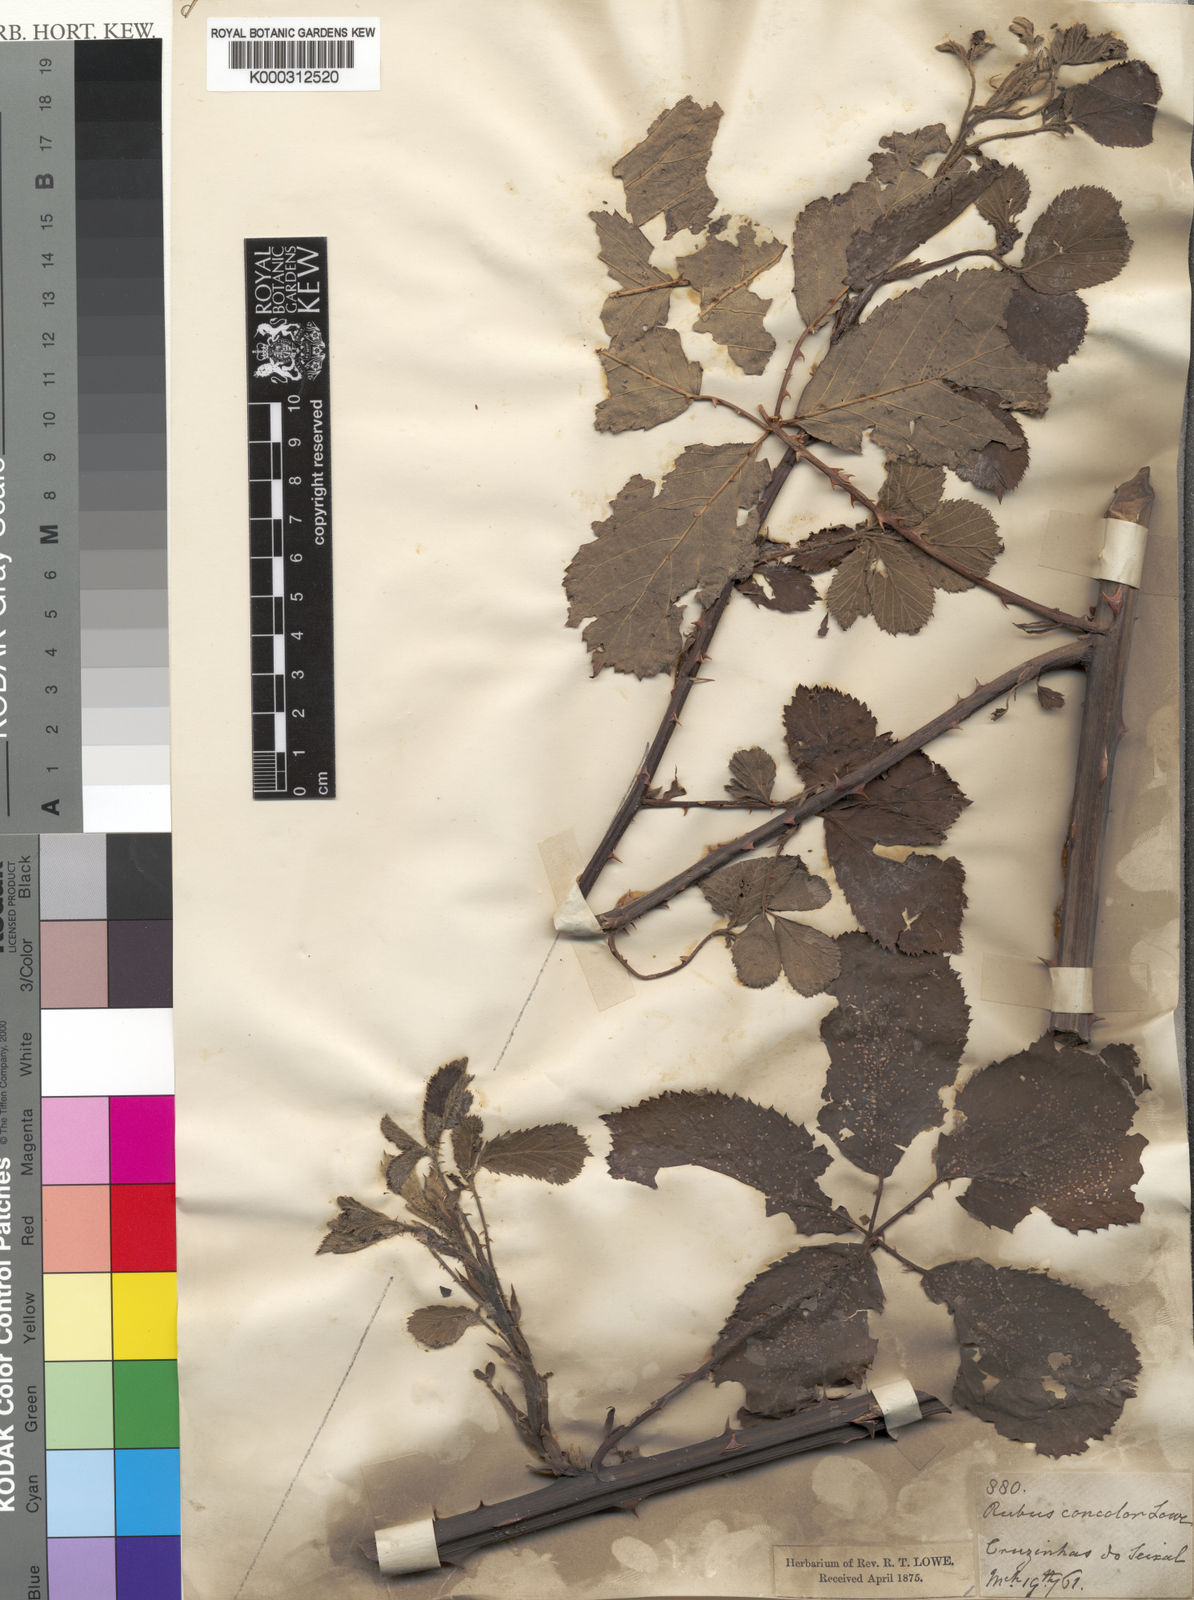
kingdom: Plantae
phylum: Tracheophyta
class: Magnoliopsida
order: Rosales
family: Rosaceae
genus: Rubus
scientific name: Rubus bollei
